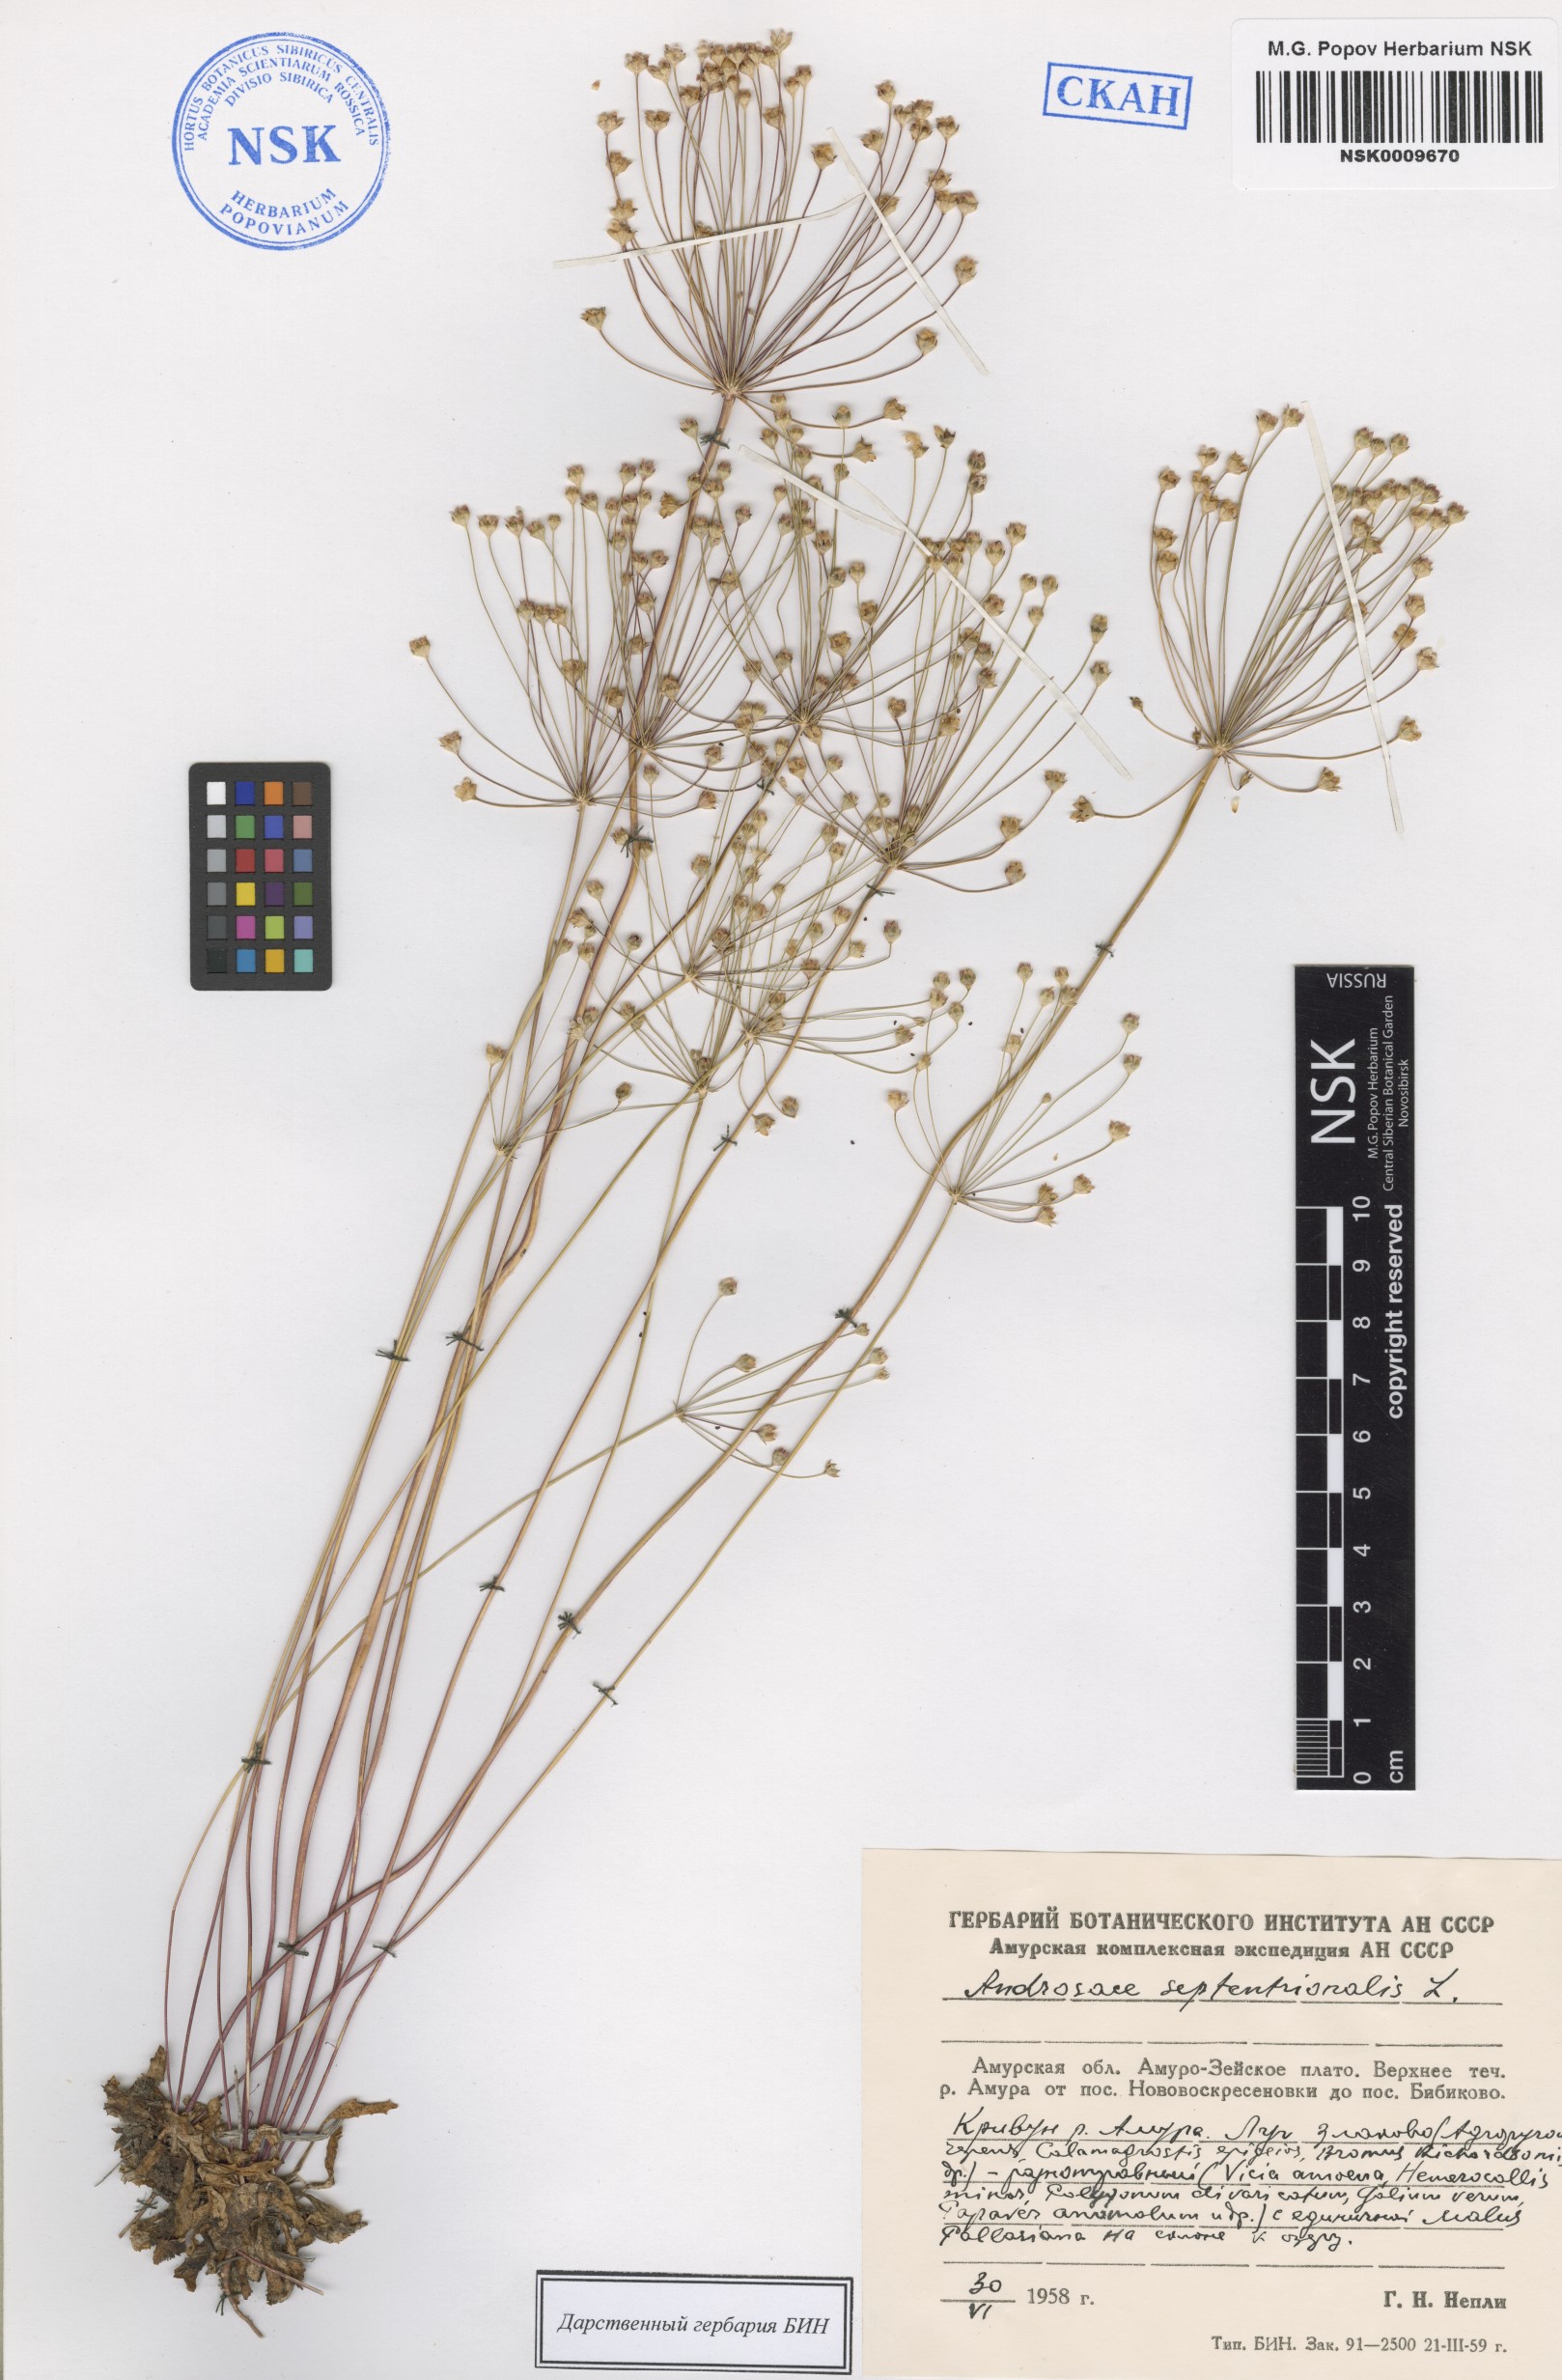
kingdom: Plantae
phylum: Tracheophyta
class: Magnoliopsida
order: Ericales
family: Primulaceae
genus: Androsace
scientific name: Androsace septentrionalis
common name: Hairy northern fairy-candelabra
